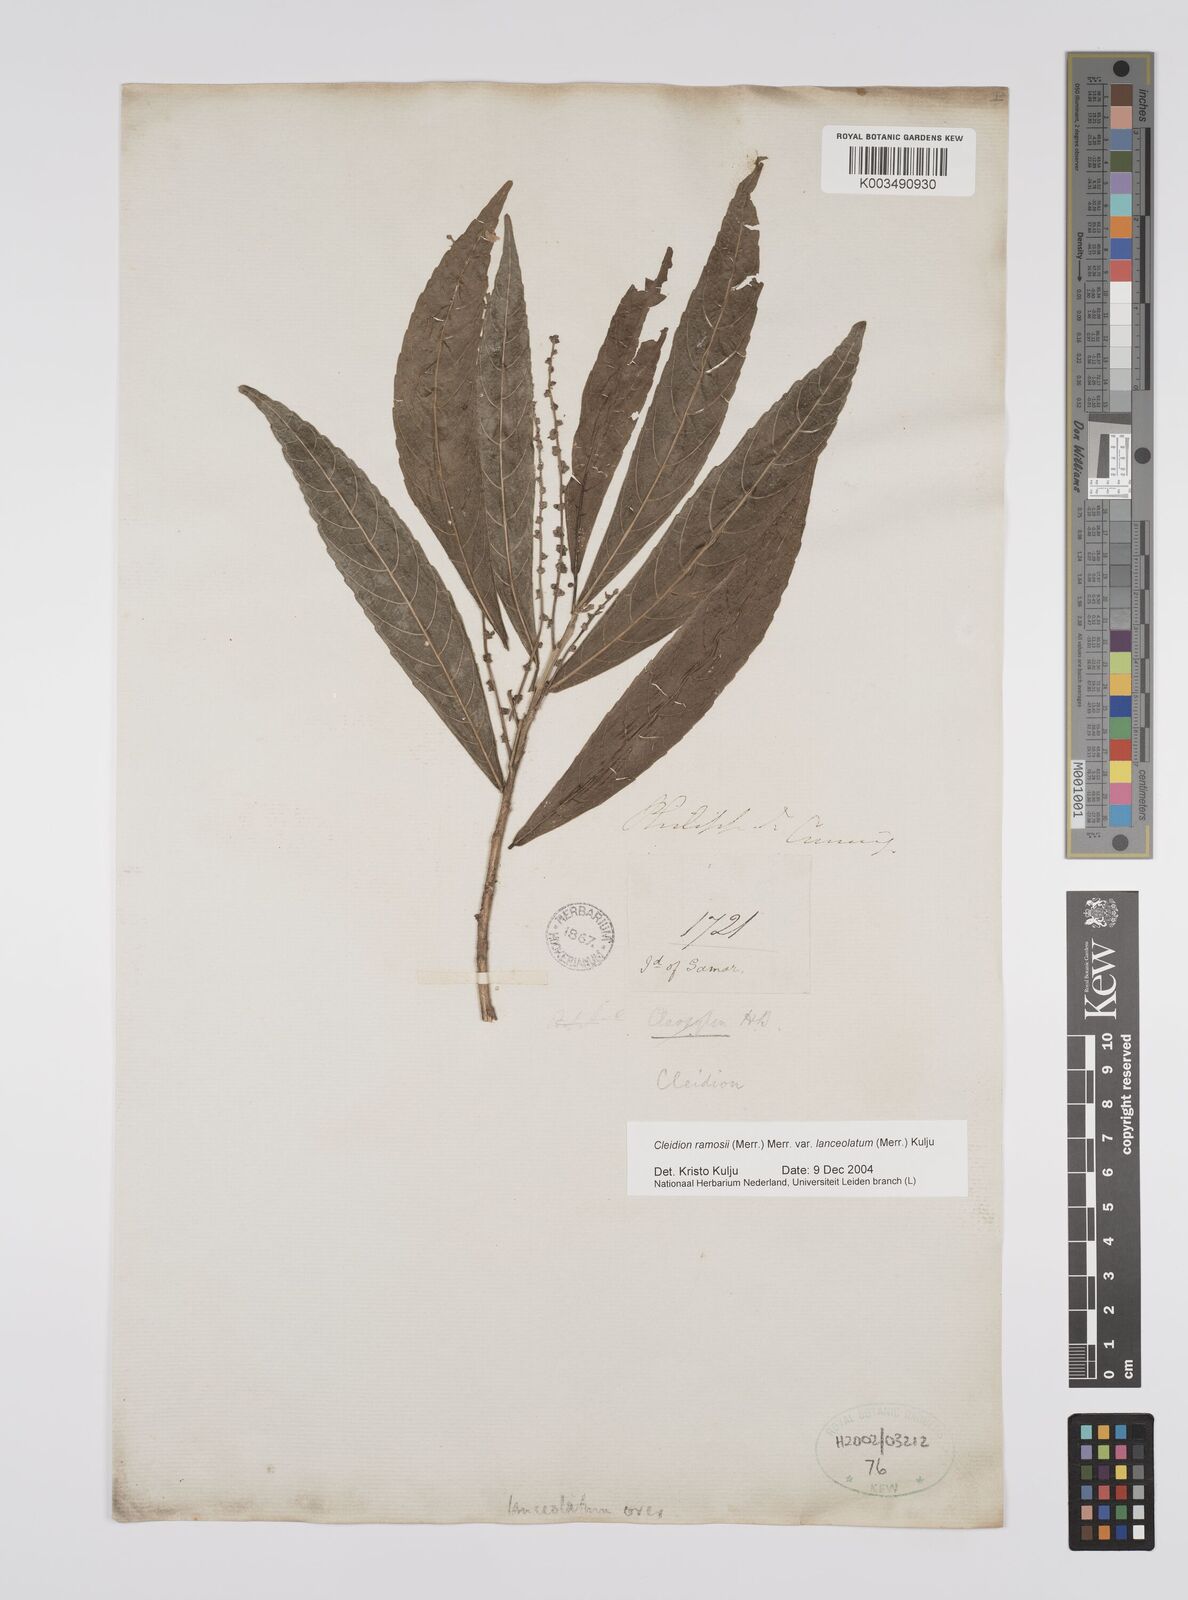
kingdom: Plantae
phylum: Tracheophyta
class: Magnoliopsida
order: Malpighiales
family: Euphorbiaceae
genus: Cleidion
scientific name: Cleidion ramosii
